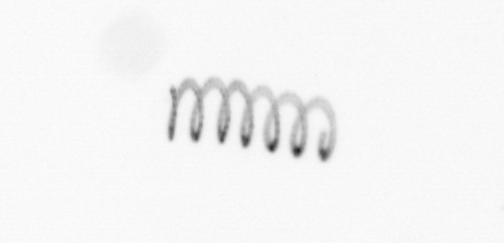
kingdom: Chromista
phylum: Ochrophyta
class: Bacillariophyceae
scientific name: Bacillariophyceae
